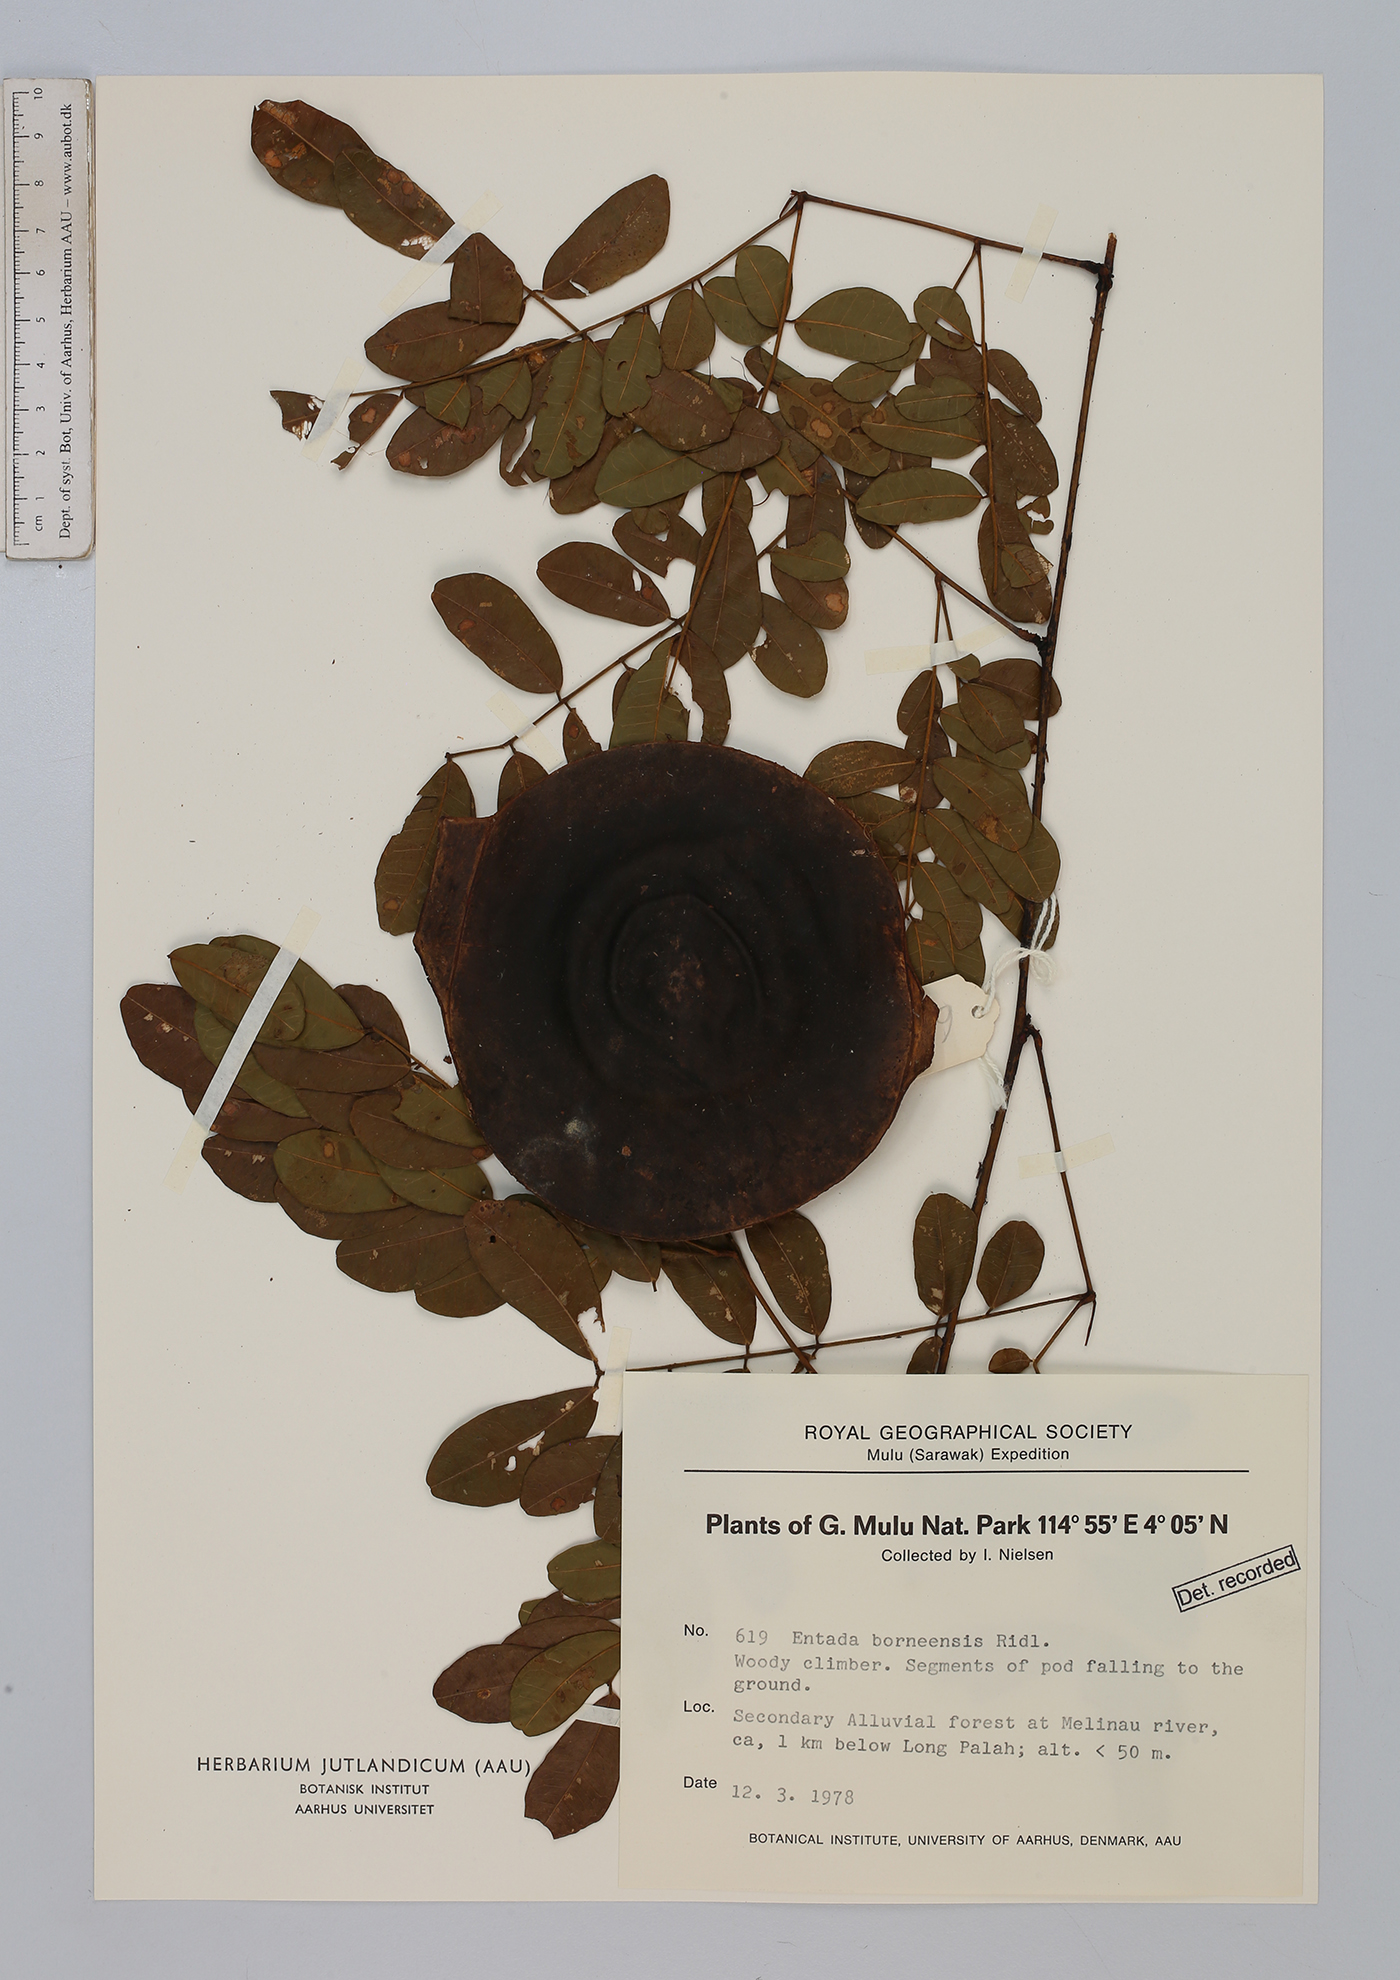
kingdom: Plantae
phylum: Tracheophyta
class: Magnoliopsida
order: Fabales
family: Fabaceae
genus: Entada
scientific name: Entada borneensis
